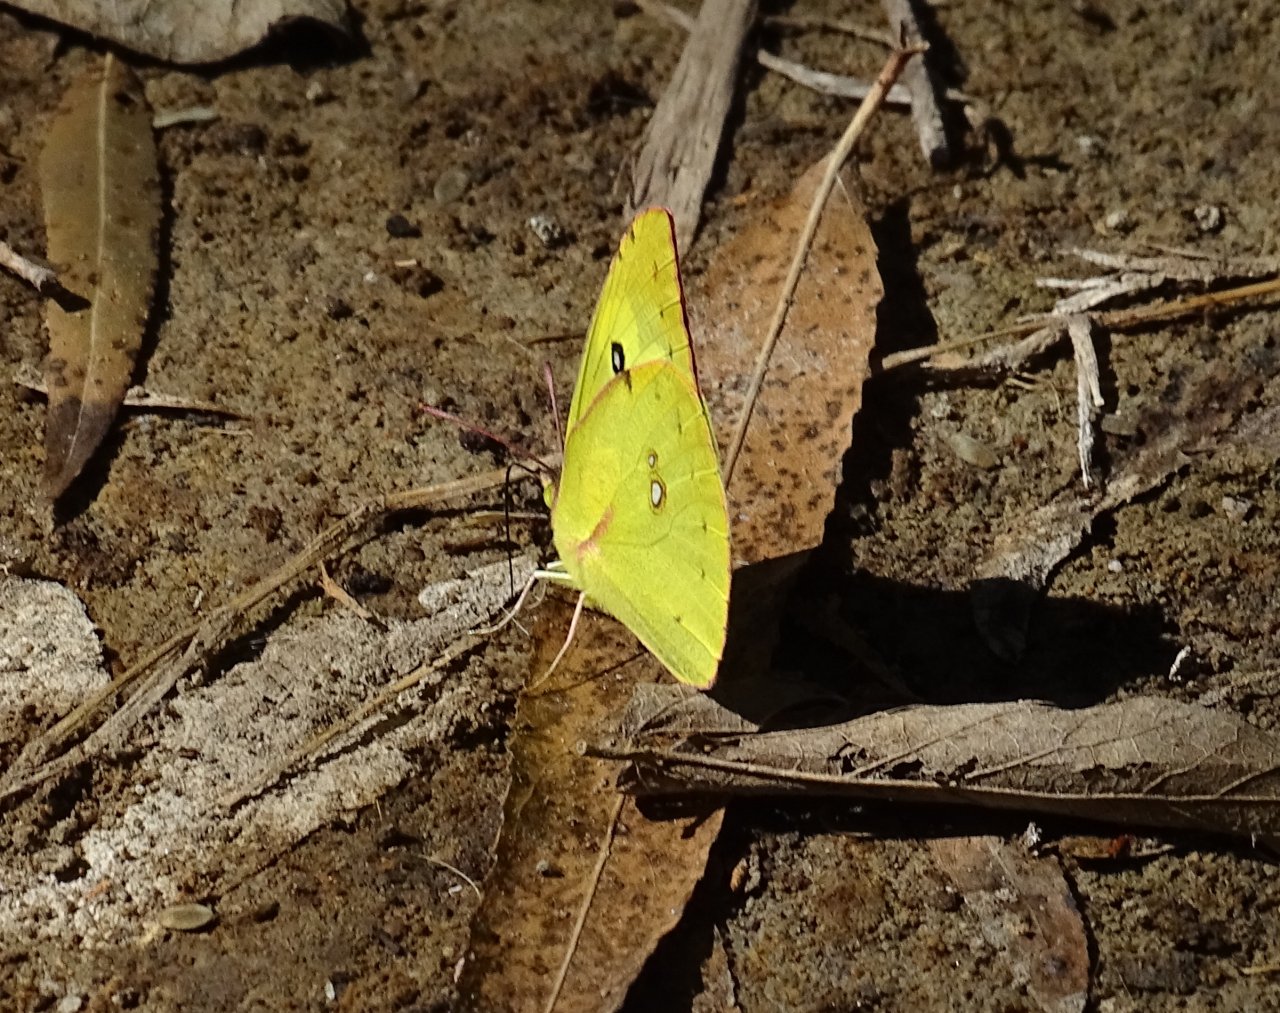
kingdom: Animalia
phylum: Arthropoda
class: Insecta
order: Lepidoptera
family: Pieridae
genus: Zerene
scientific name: Zerene cesonia
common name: Southern Dogface
